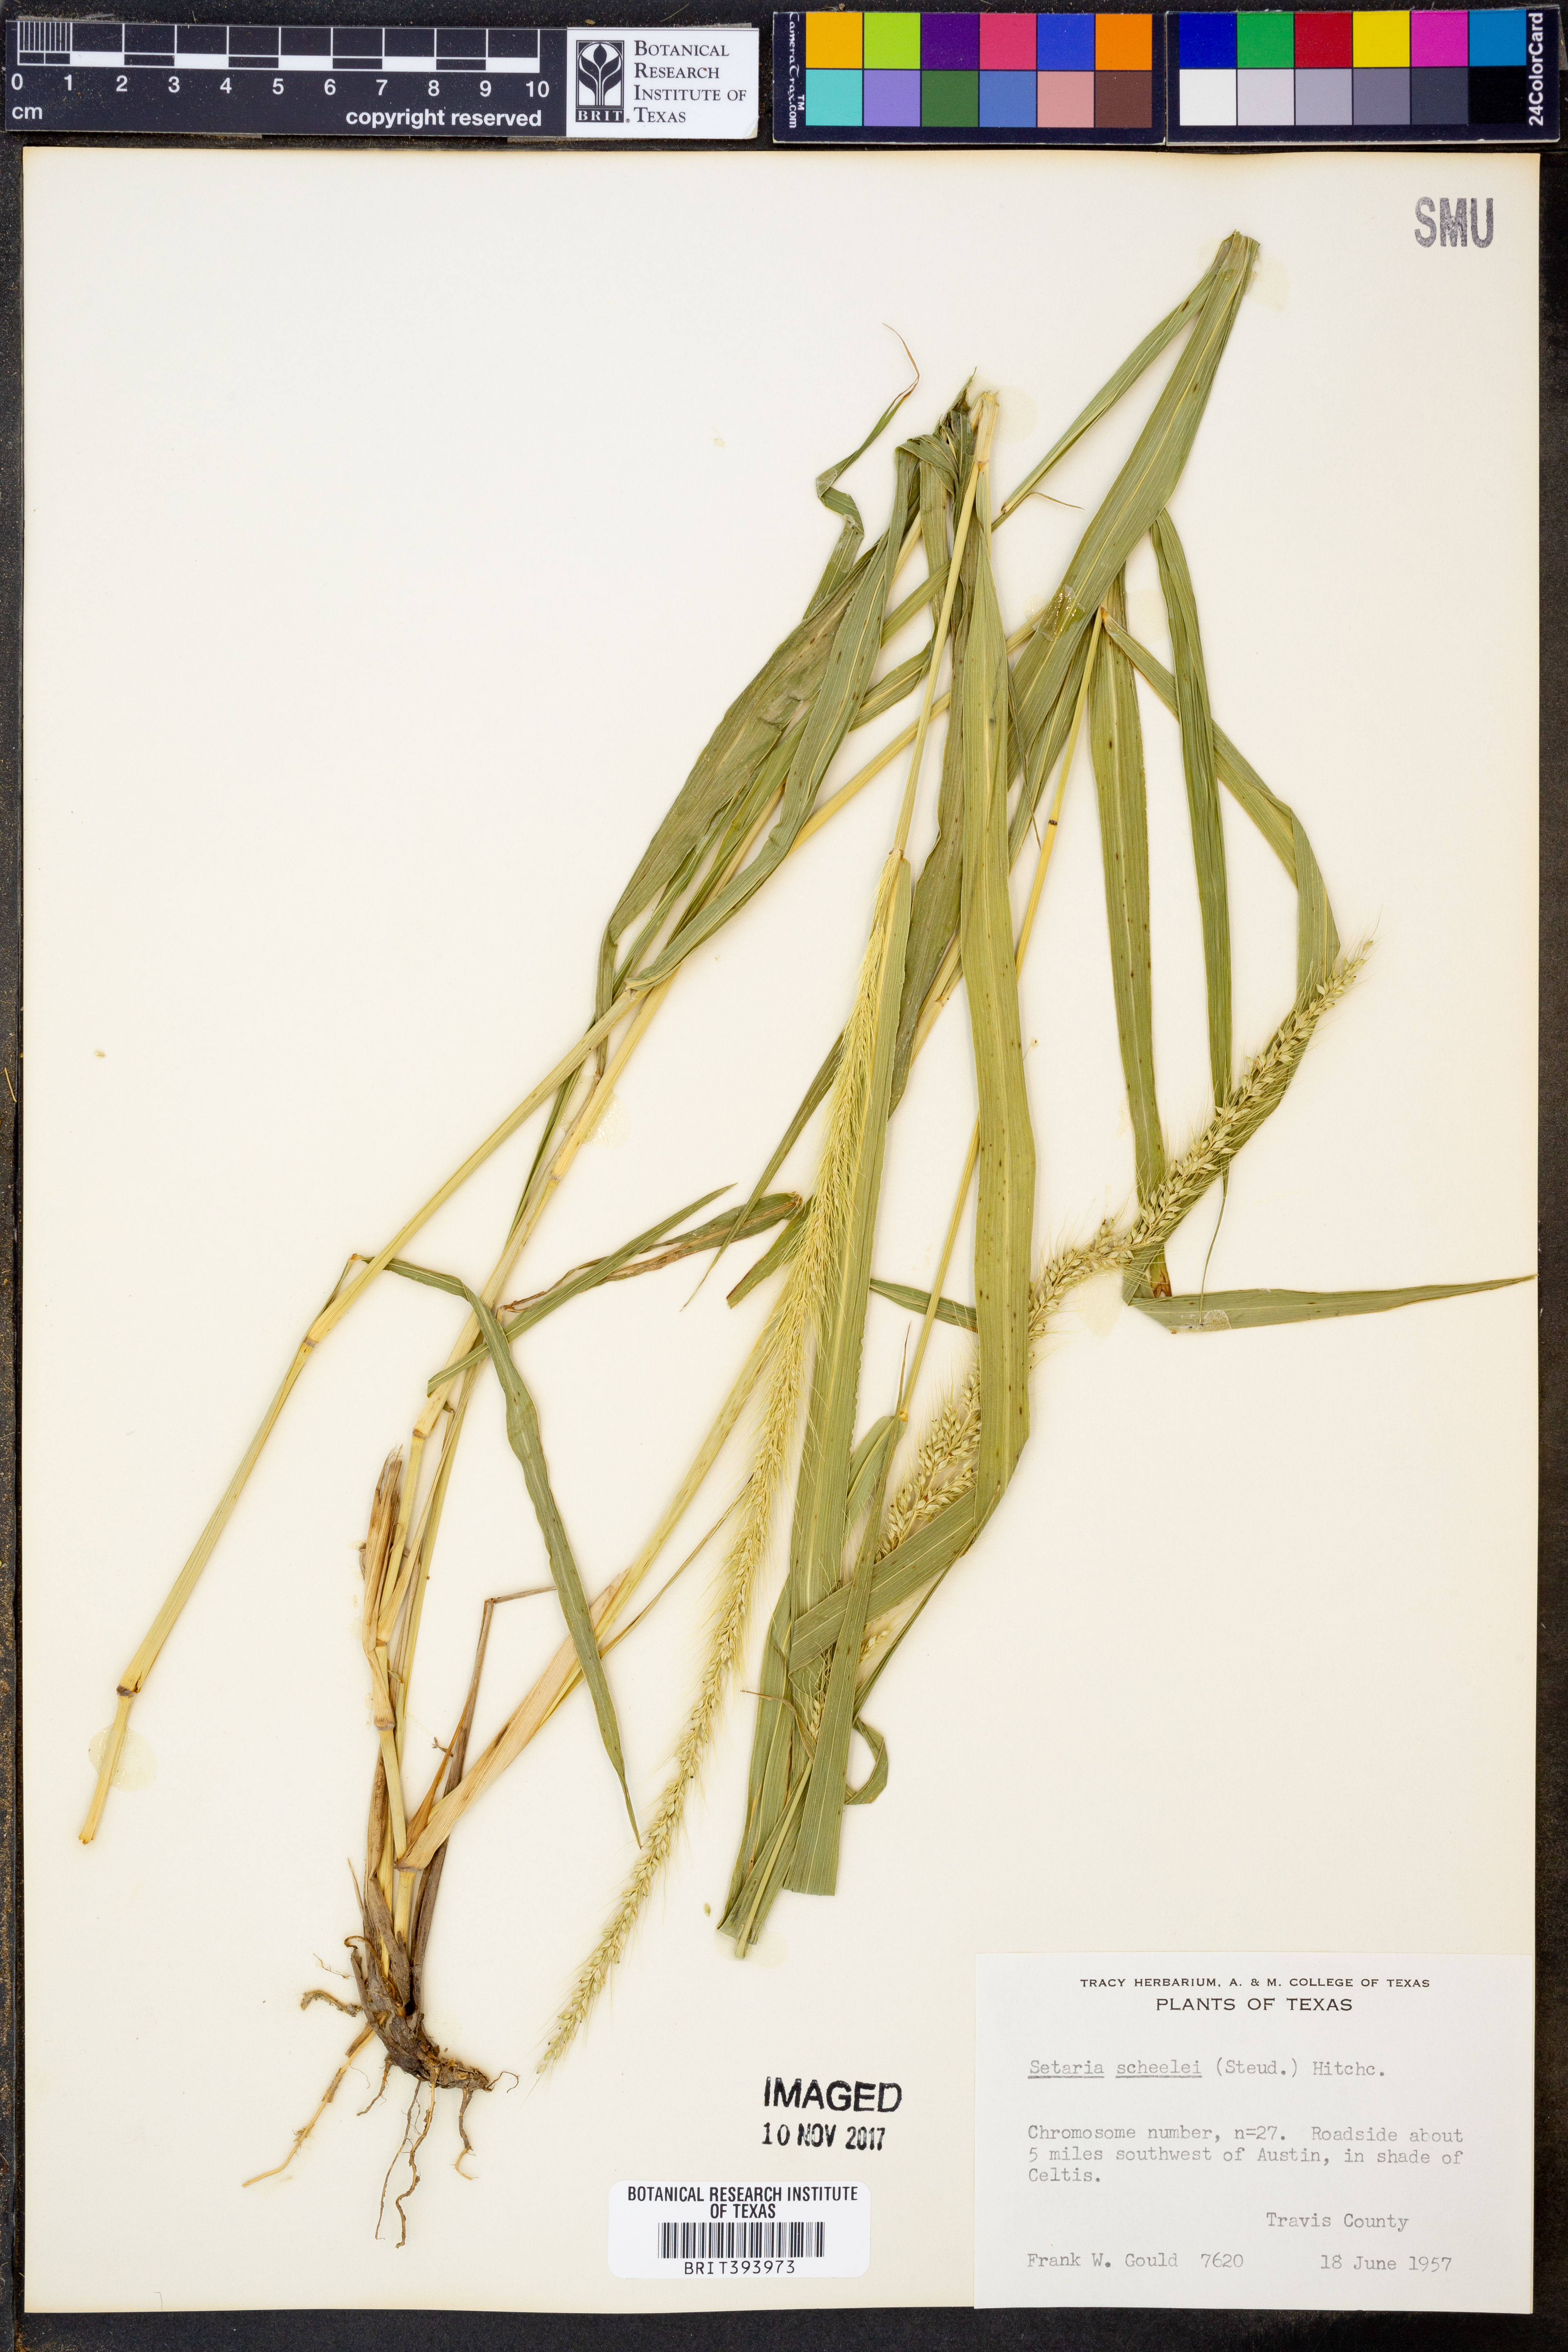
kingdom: Plantae
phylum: Tracheophyta
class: Liliopsida
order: Poales
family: Poaceae
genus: Setaria
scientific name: Setaria scheelei
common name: Southwestern bristle grass
